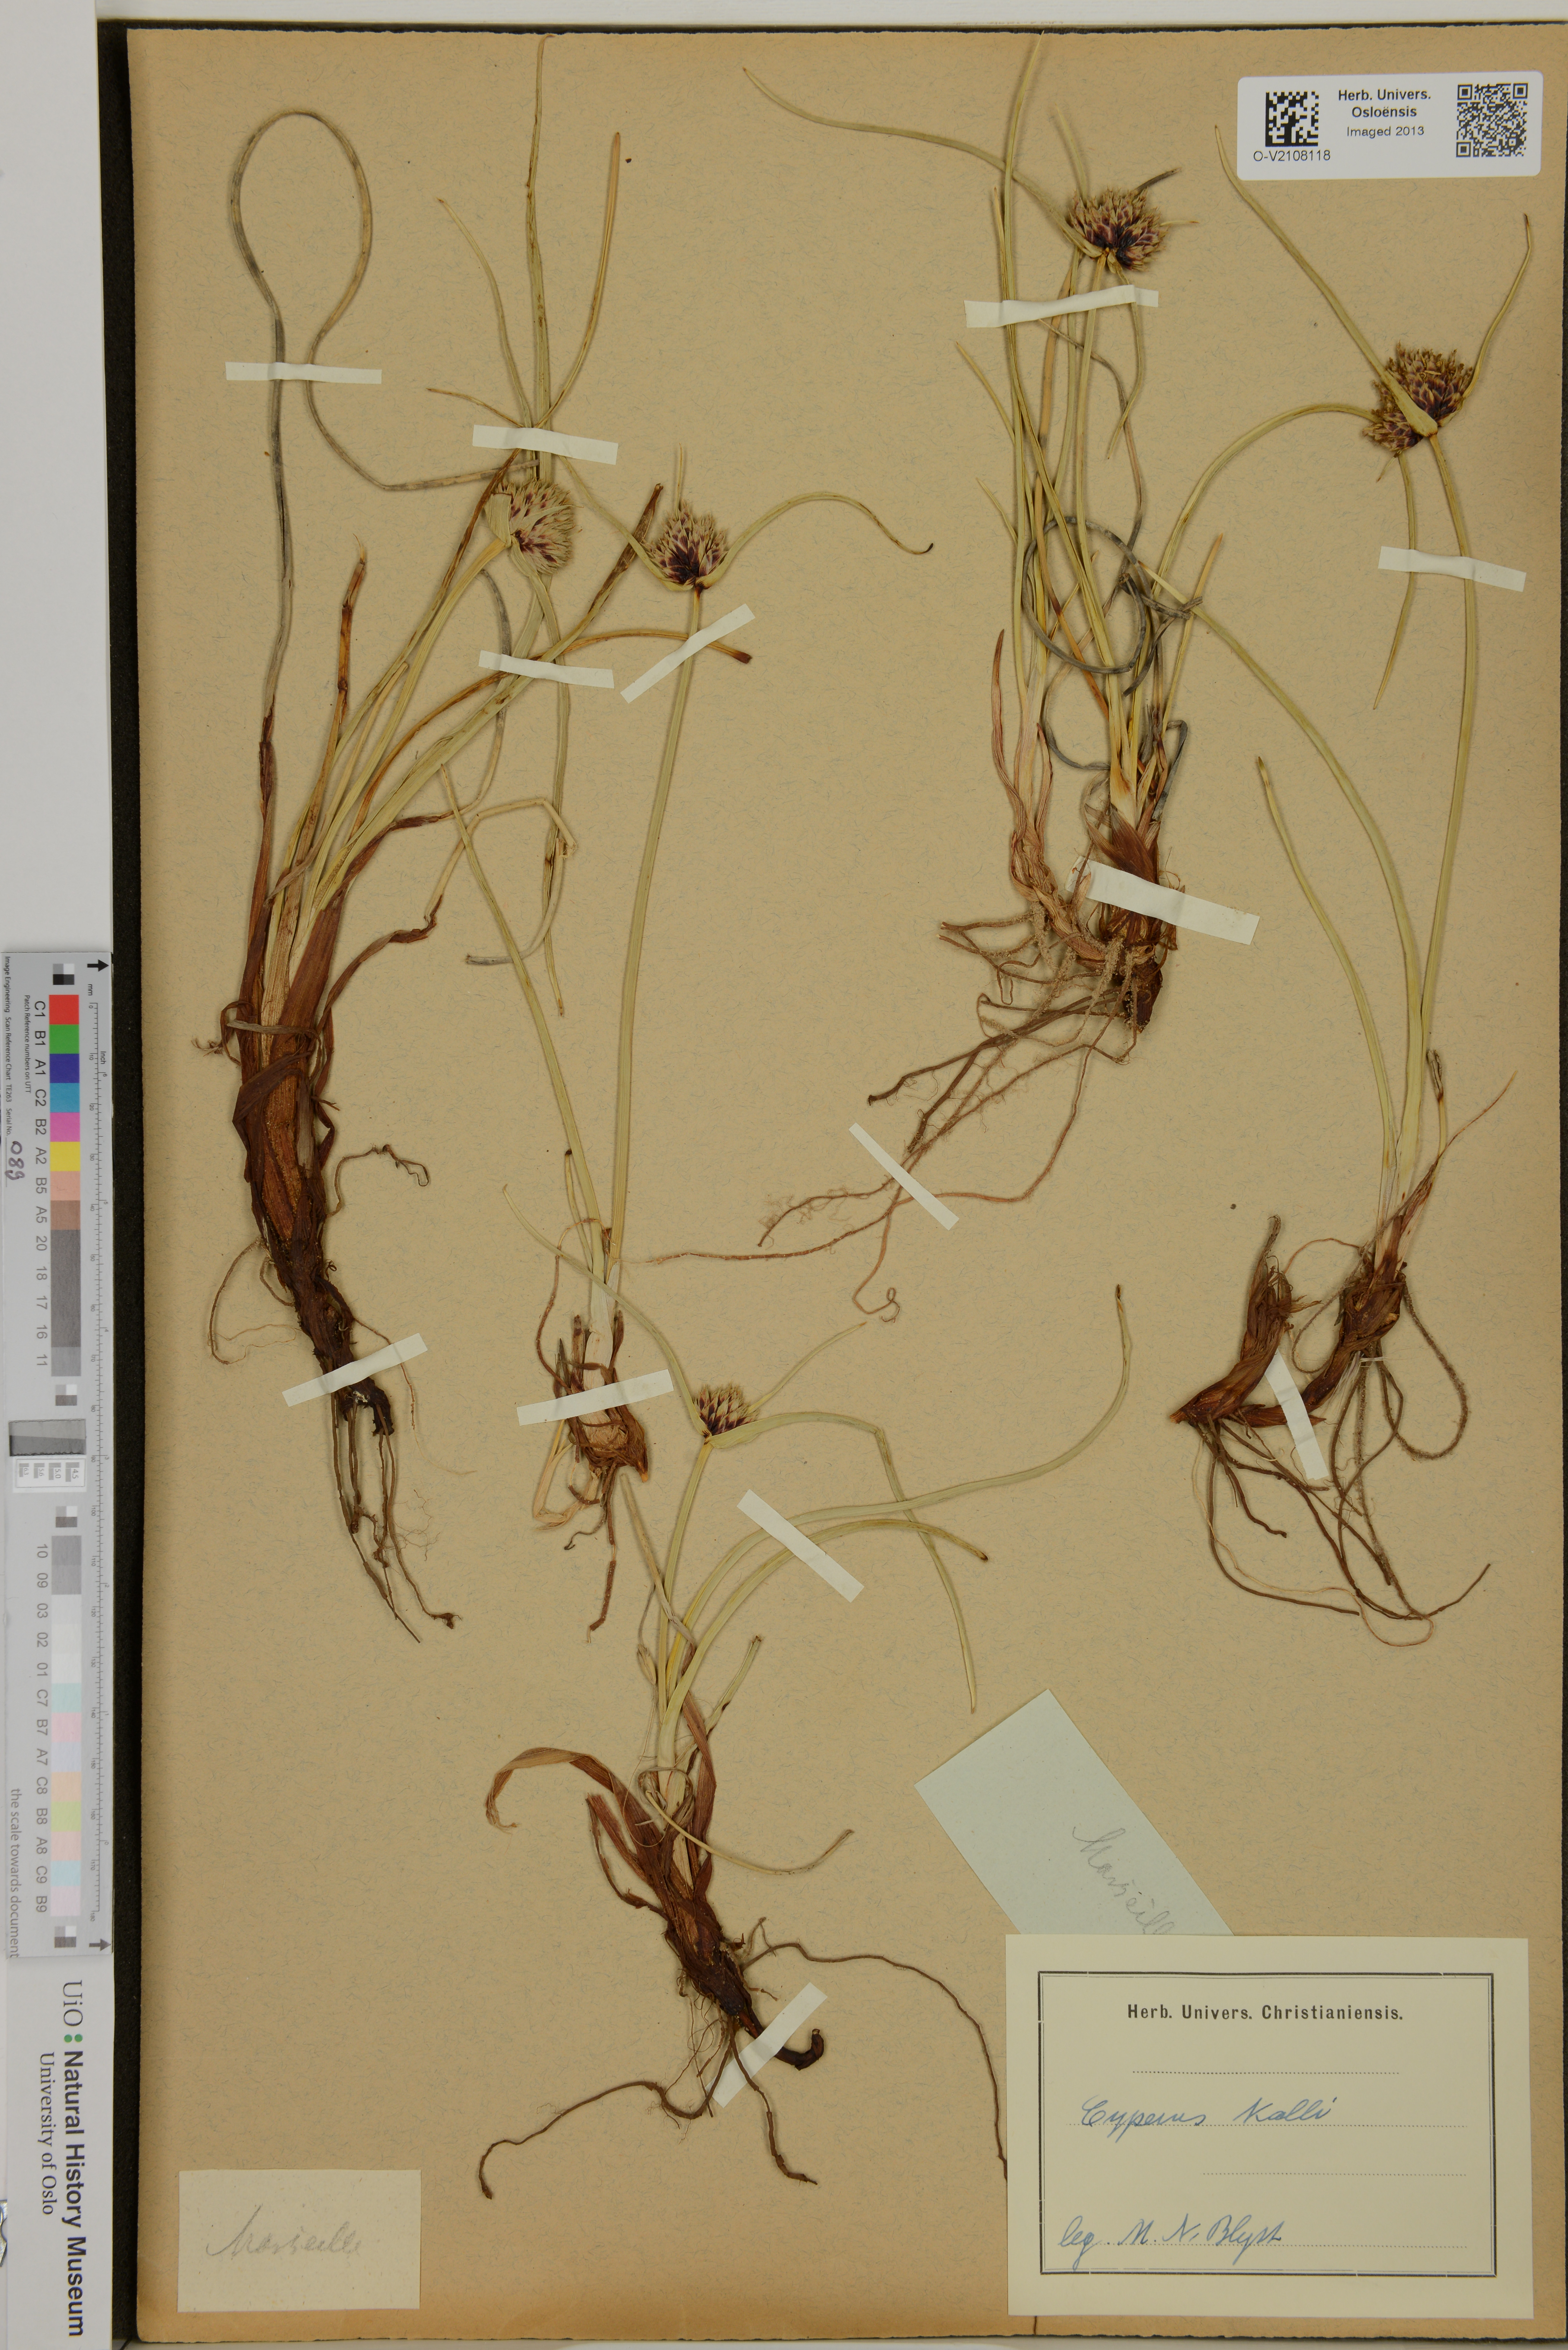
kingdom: Plantae
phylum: Tracheophyta
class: Liliopsida
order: Poales
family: Cyperaceae
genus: Cyperus
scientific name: Cyperus capitatus
